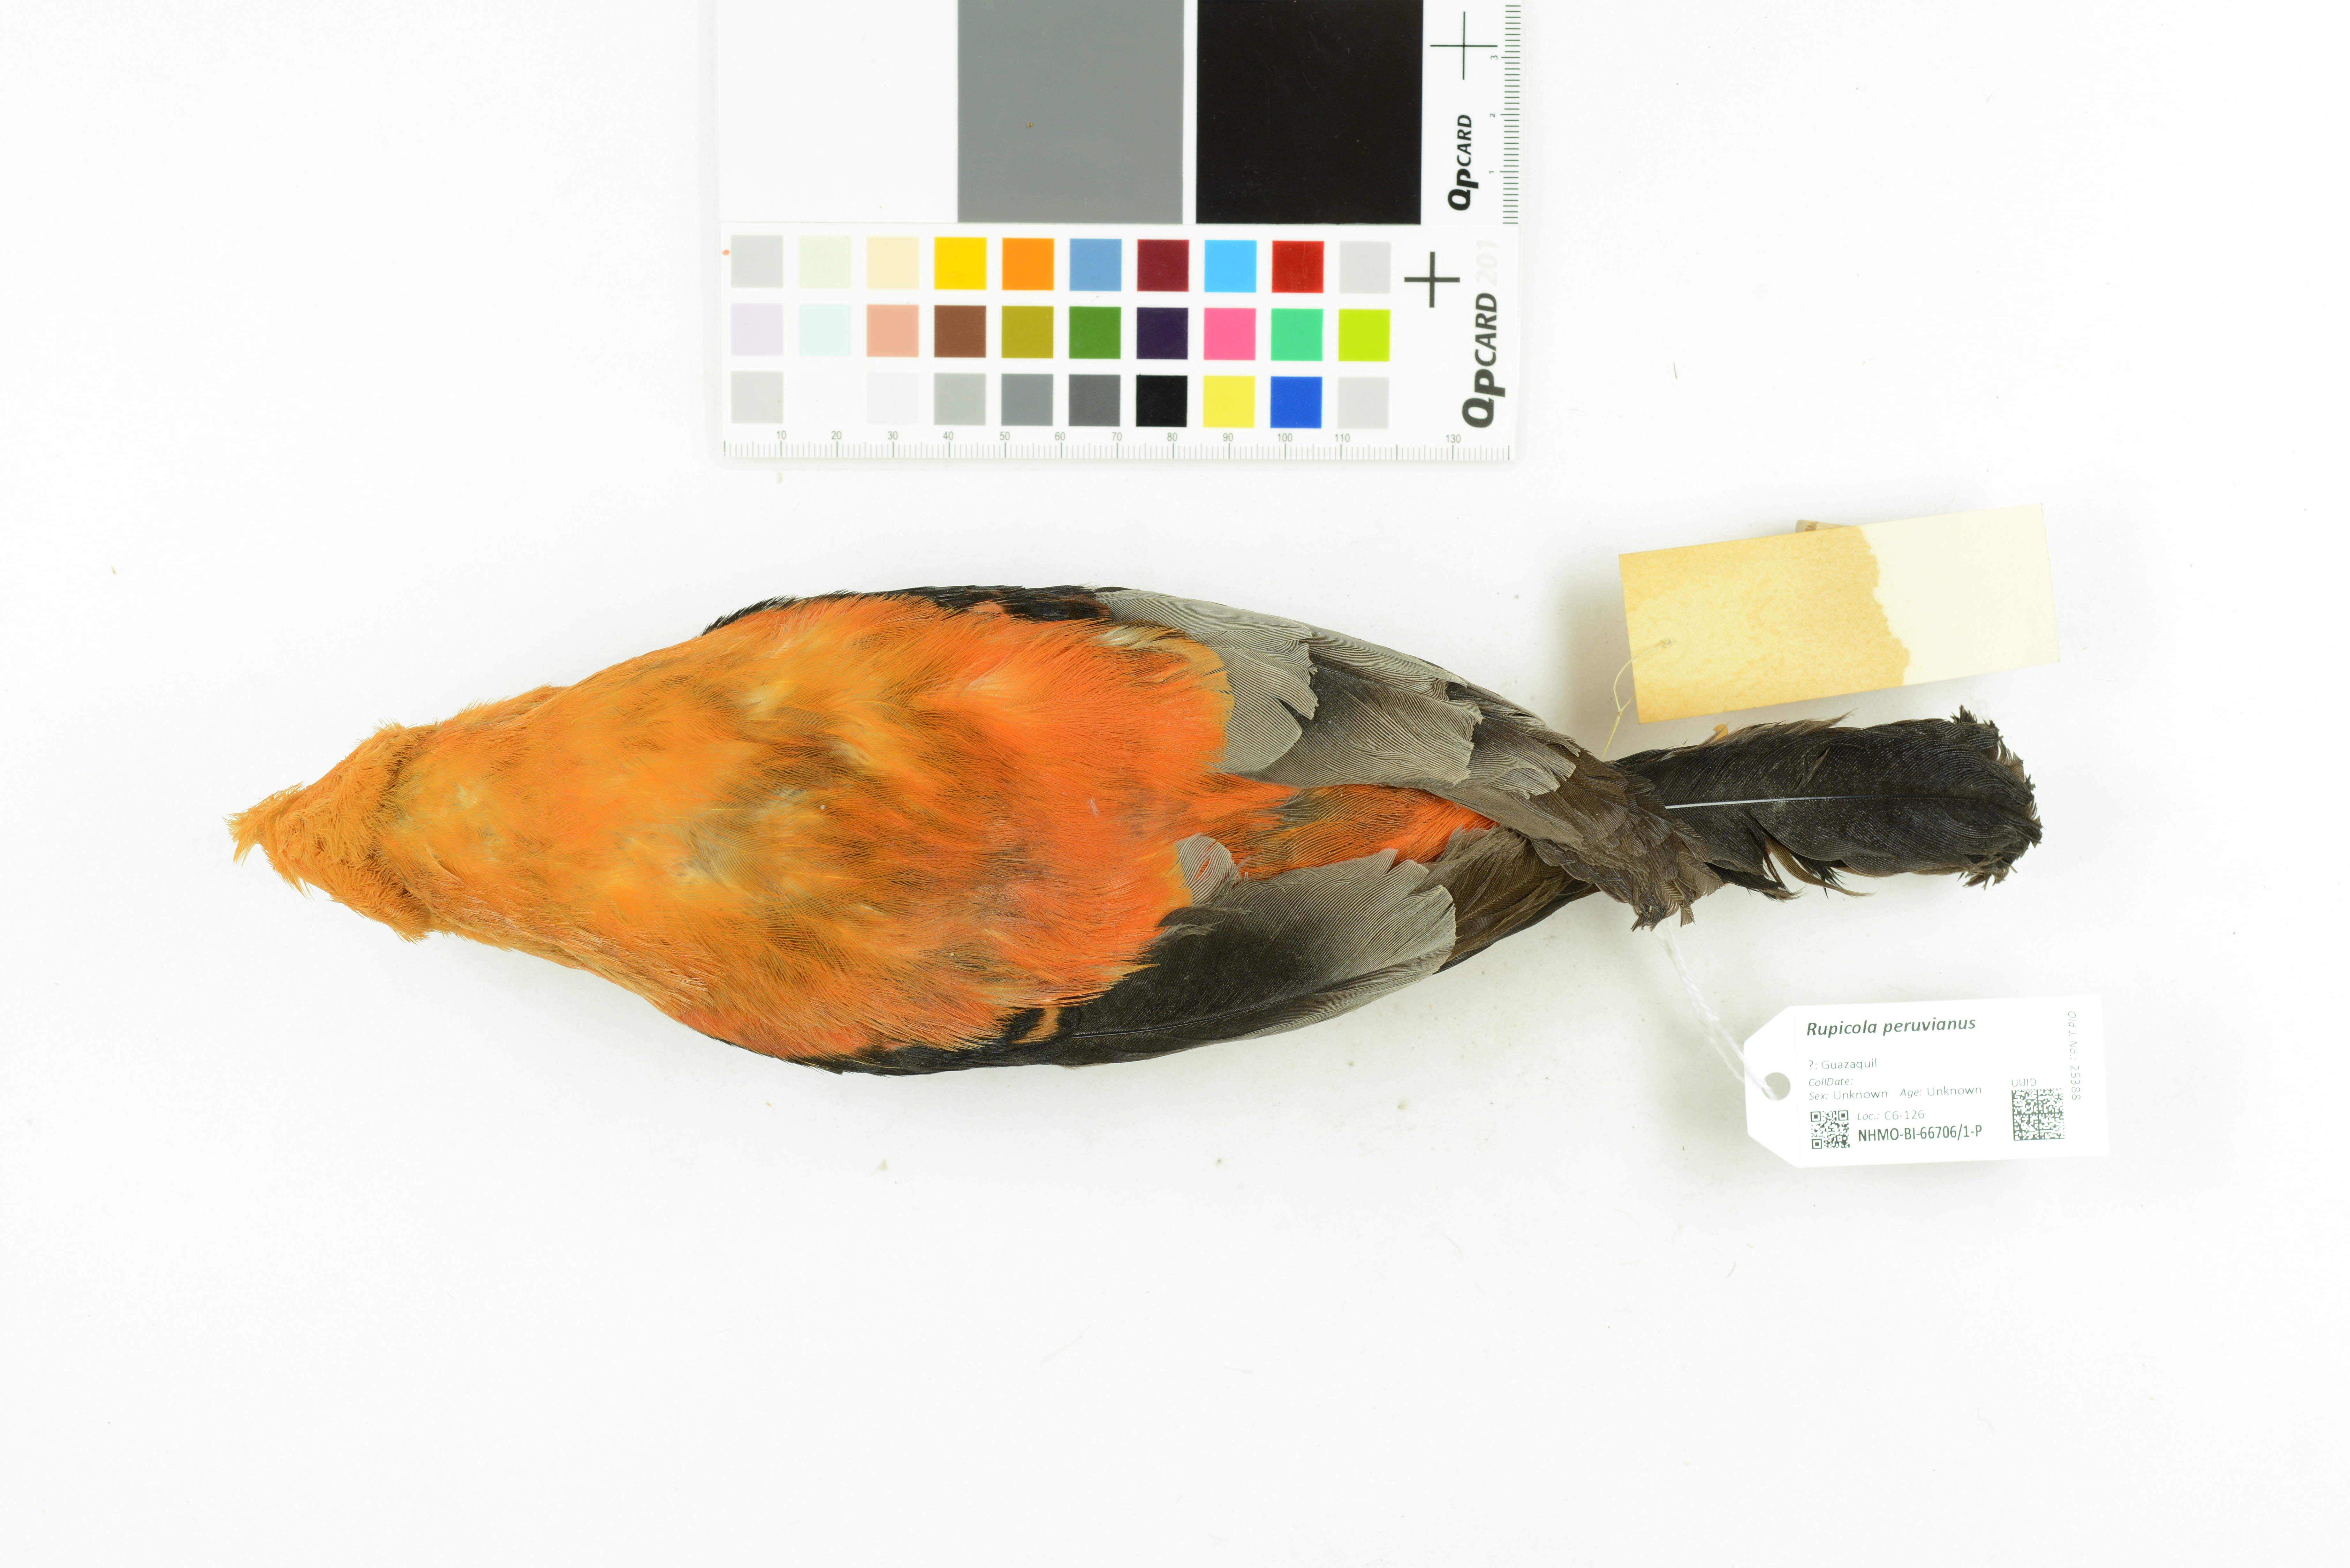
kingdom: Animalia
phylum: Chordata
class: Aves
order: Passeriformes
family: Cotingidae
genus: Rupicola
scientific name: Rupicola peruvianus
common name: Andean cock-of-the-rock
